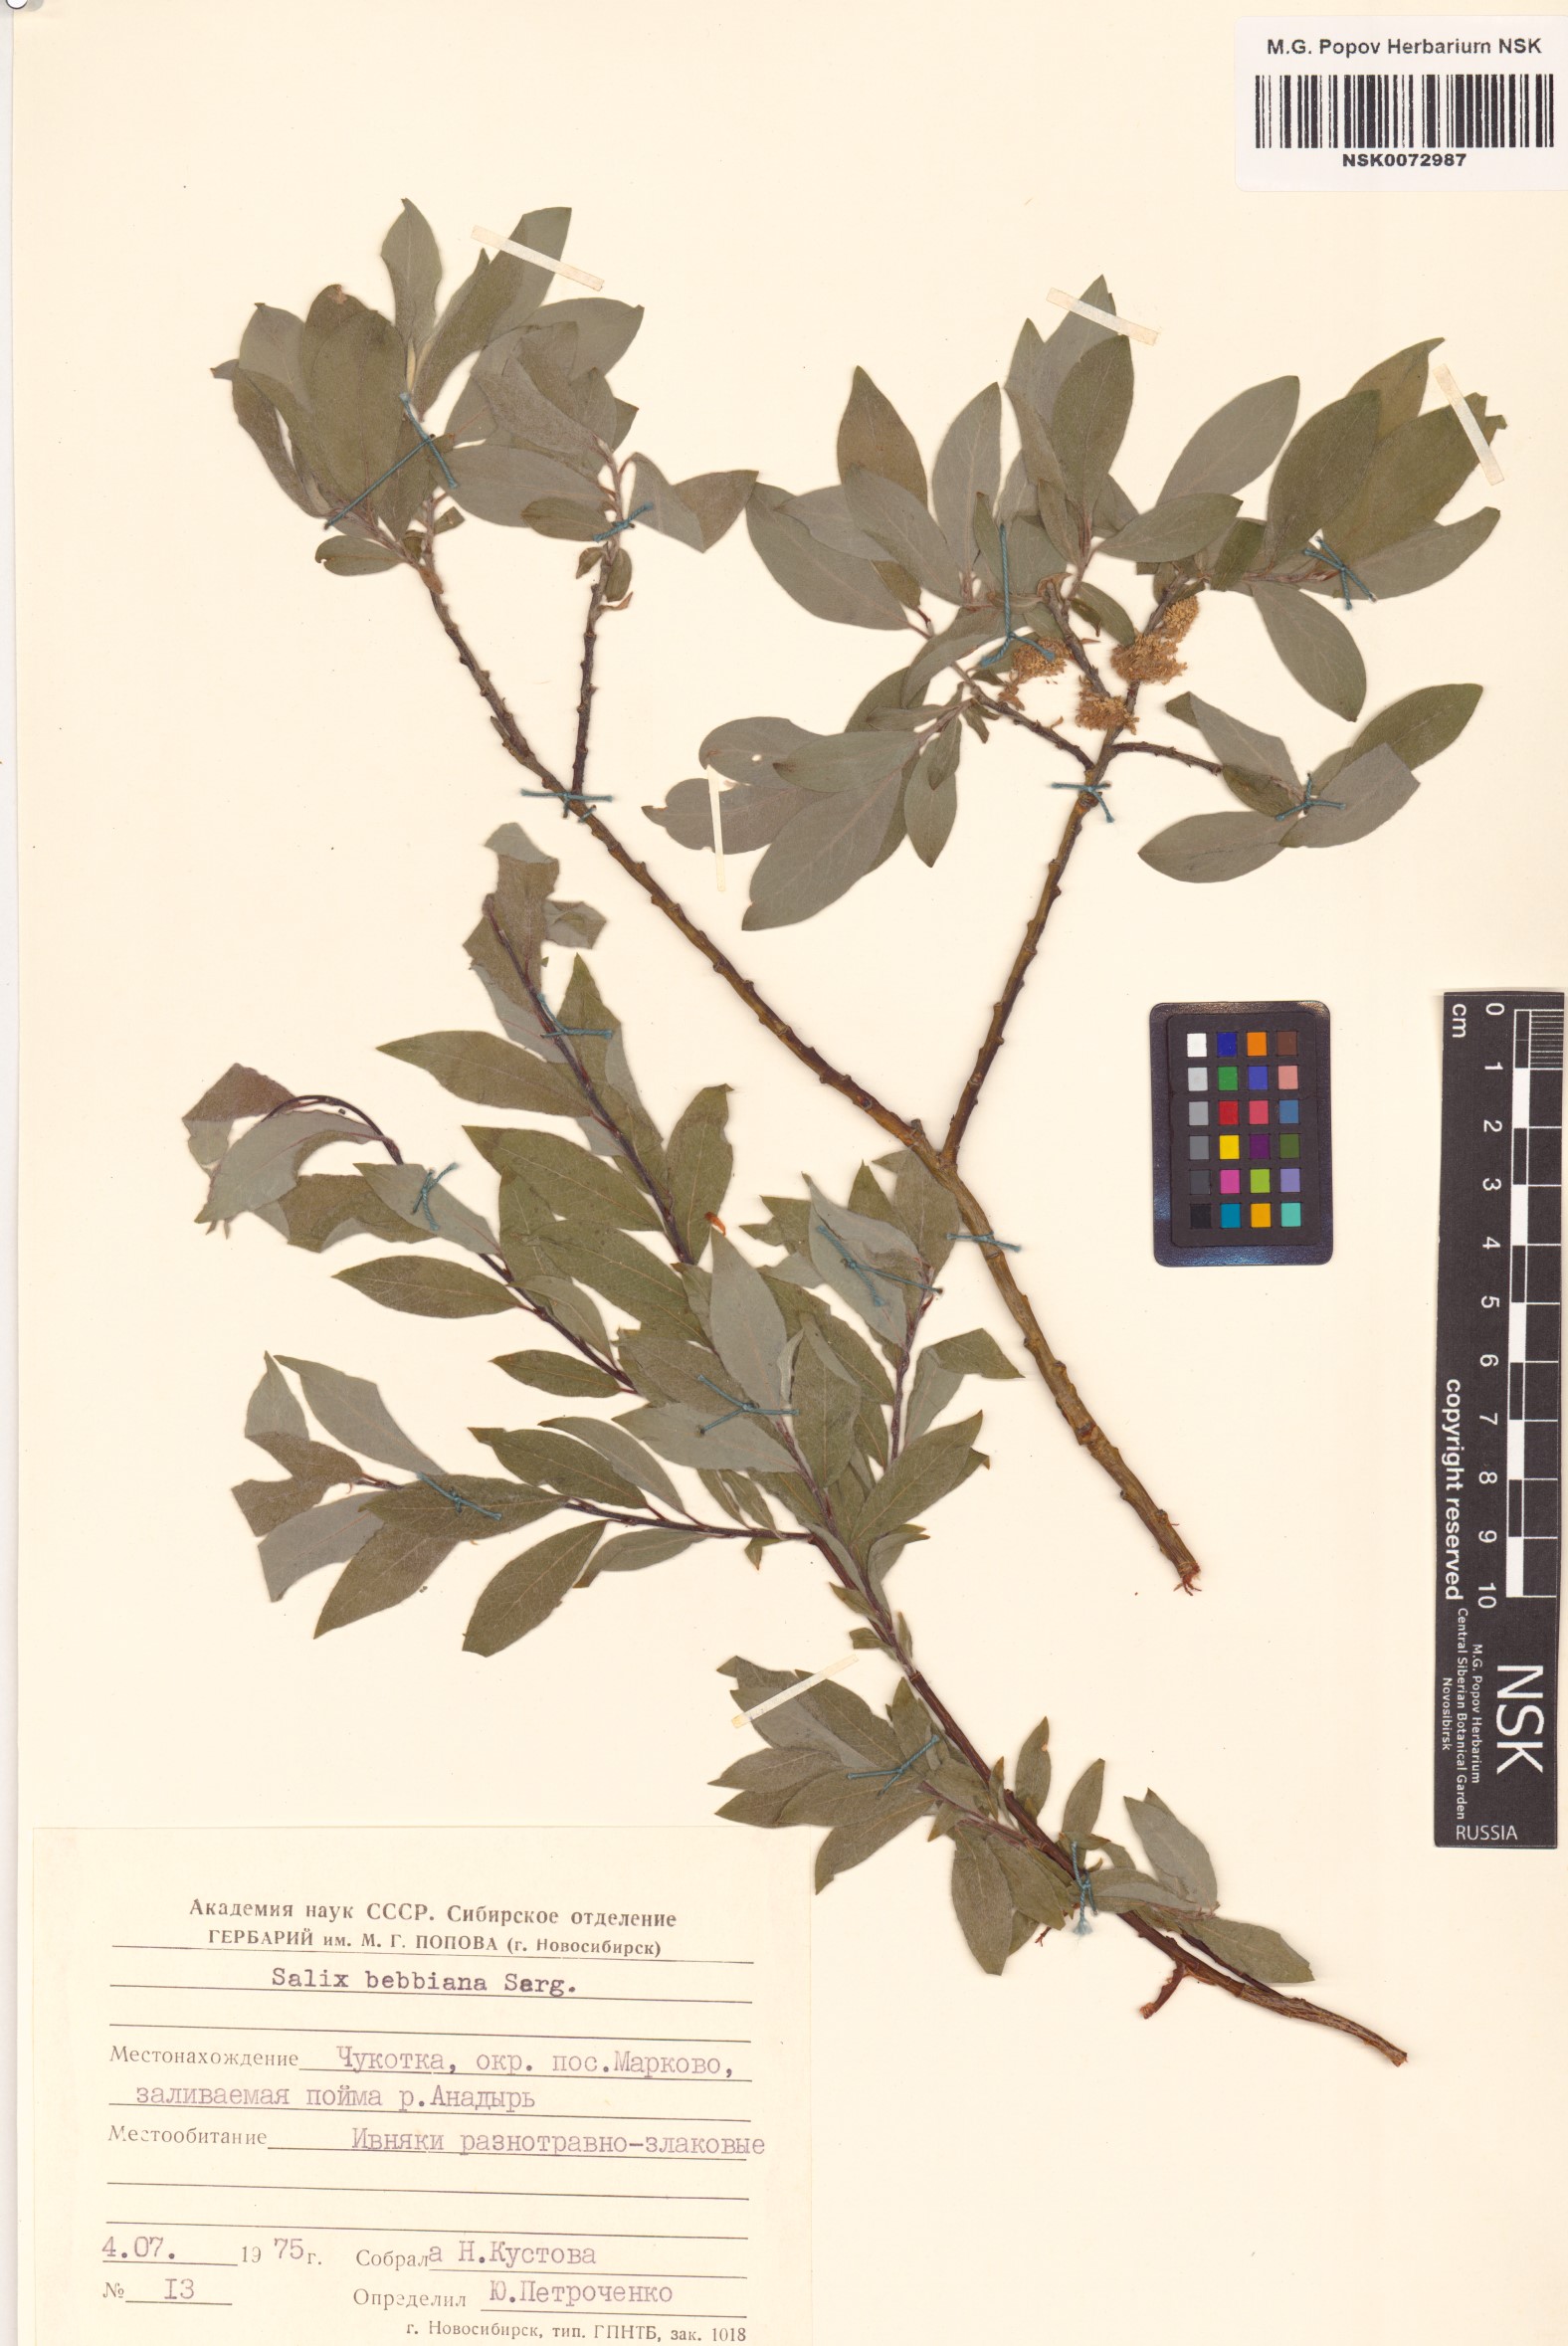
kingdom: Plantae
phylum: Tracheophyta
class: Magnoliopsida
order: Malpighiales
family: Salicaceae
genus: Salix
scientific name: Salix bebbiana
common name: Bebb's willow
